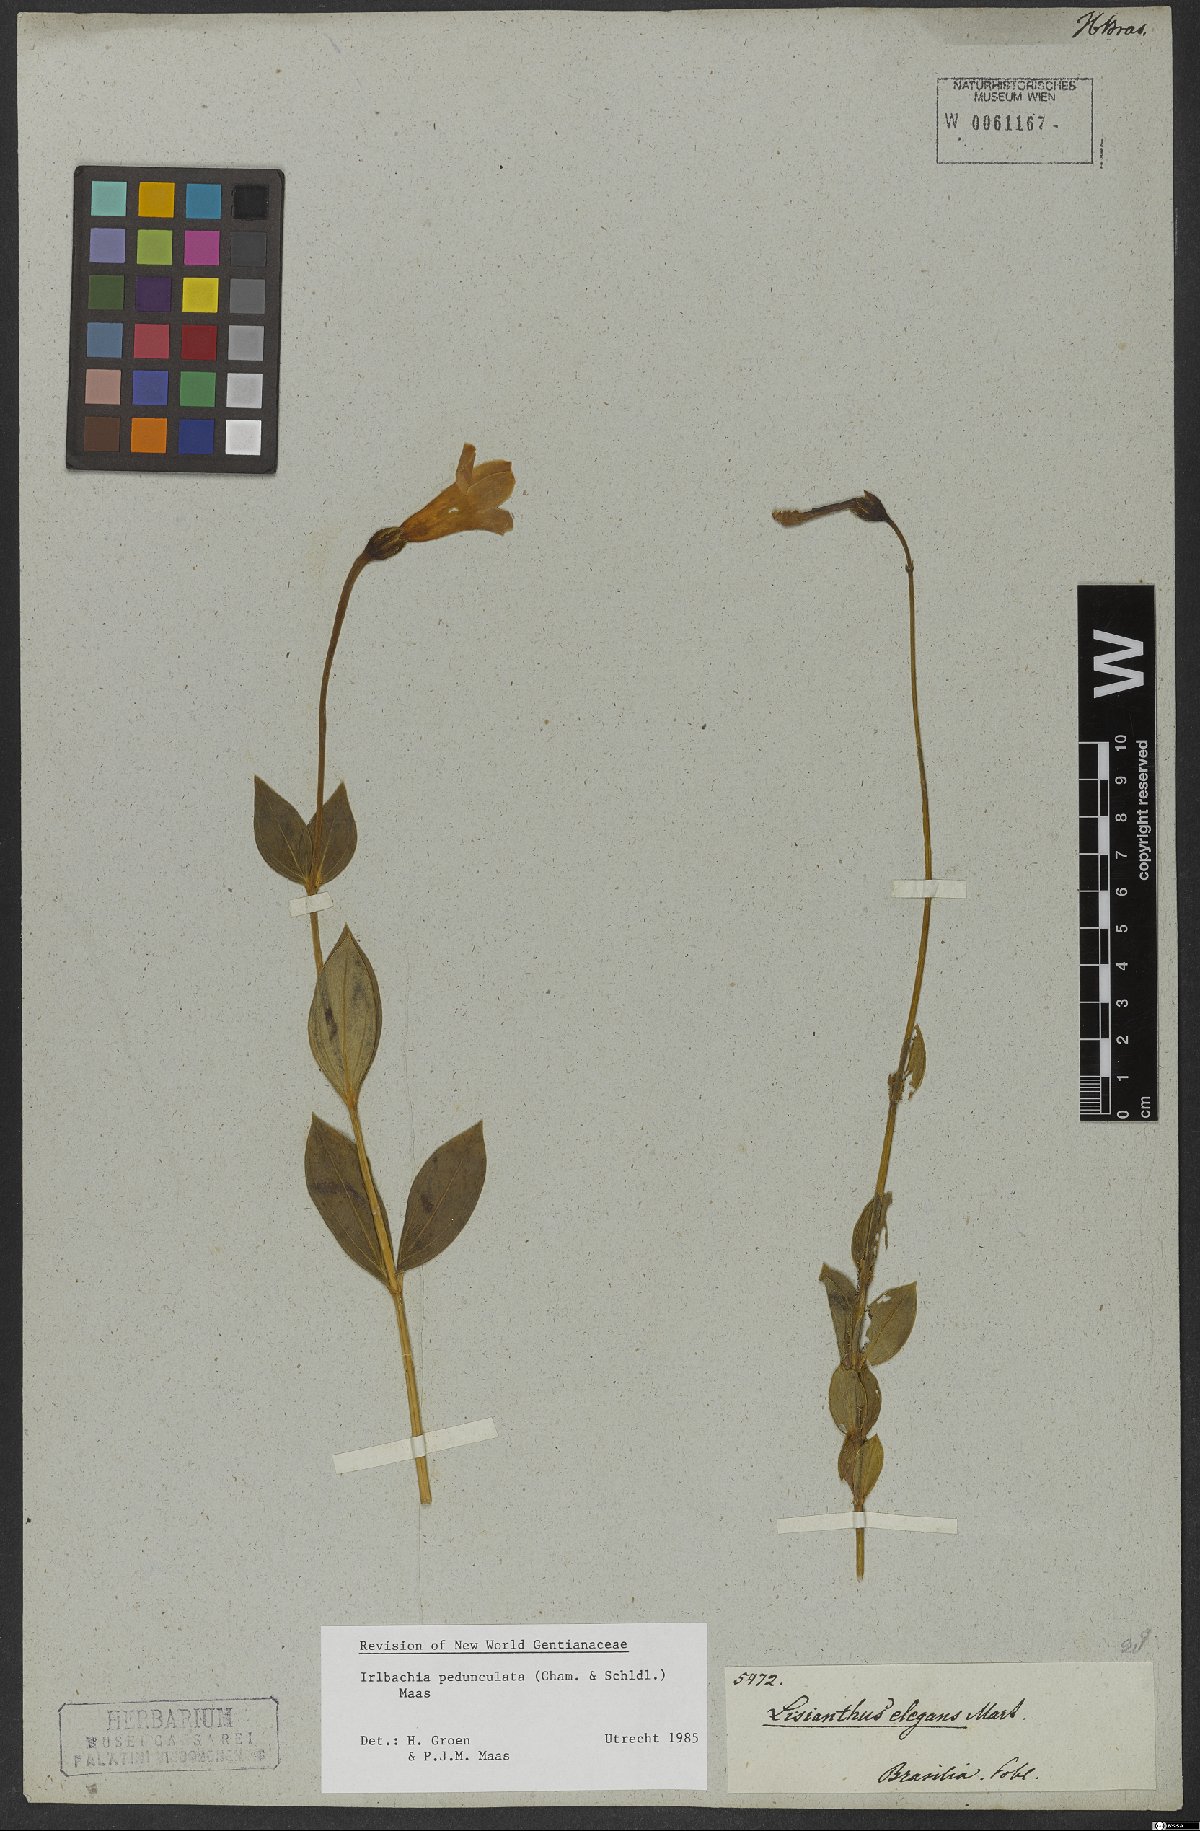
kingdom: Plantae
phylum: Tracheophyta
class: Magnoliopsida
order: Gentianales
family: Gentianaceae
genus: Calolisianthus
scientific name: Calolisianthus pedunculatus
